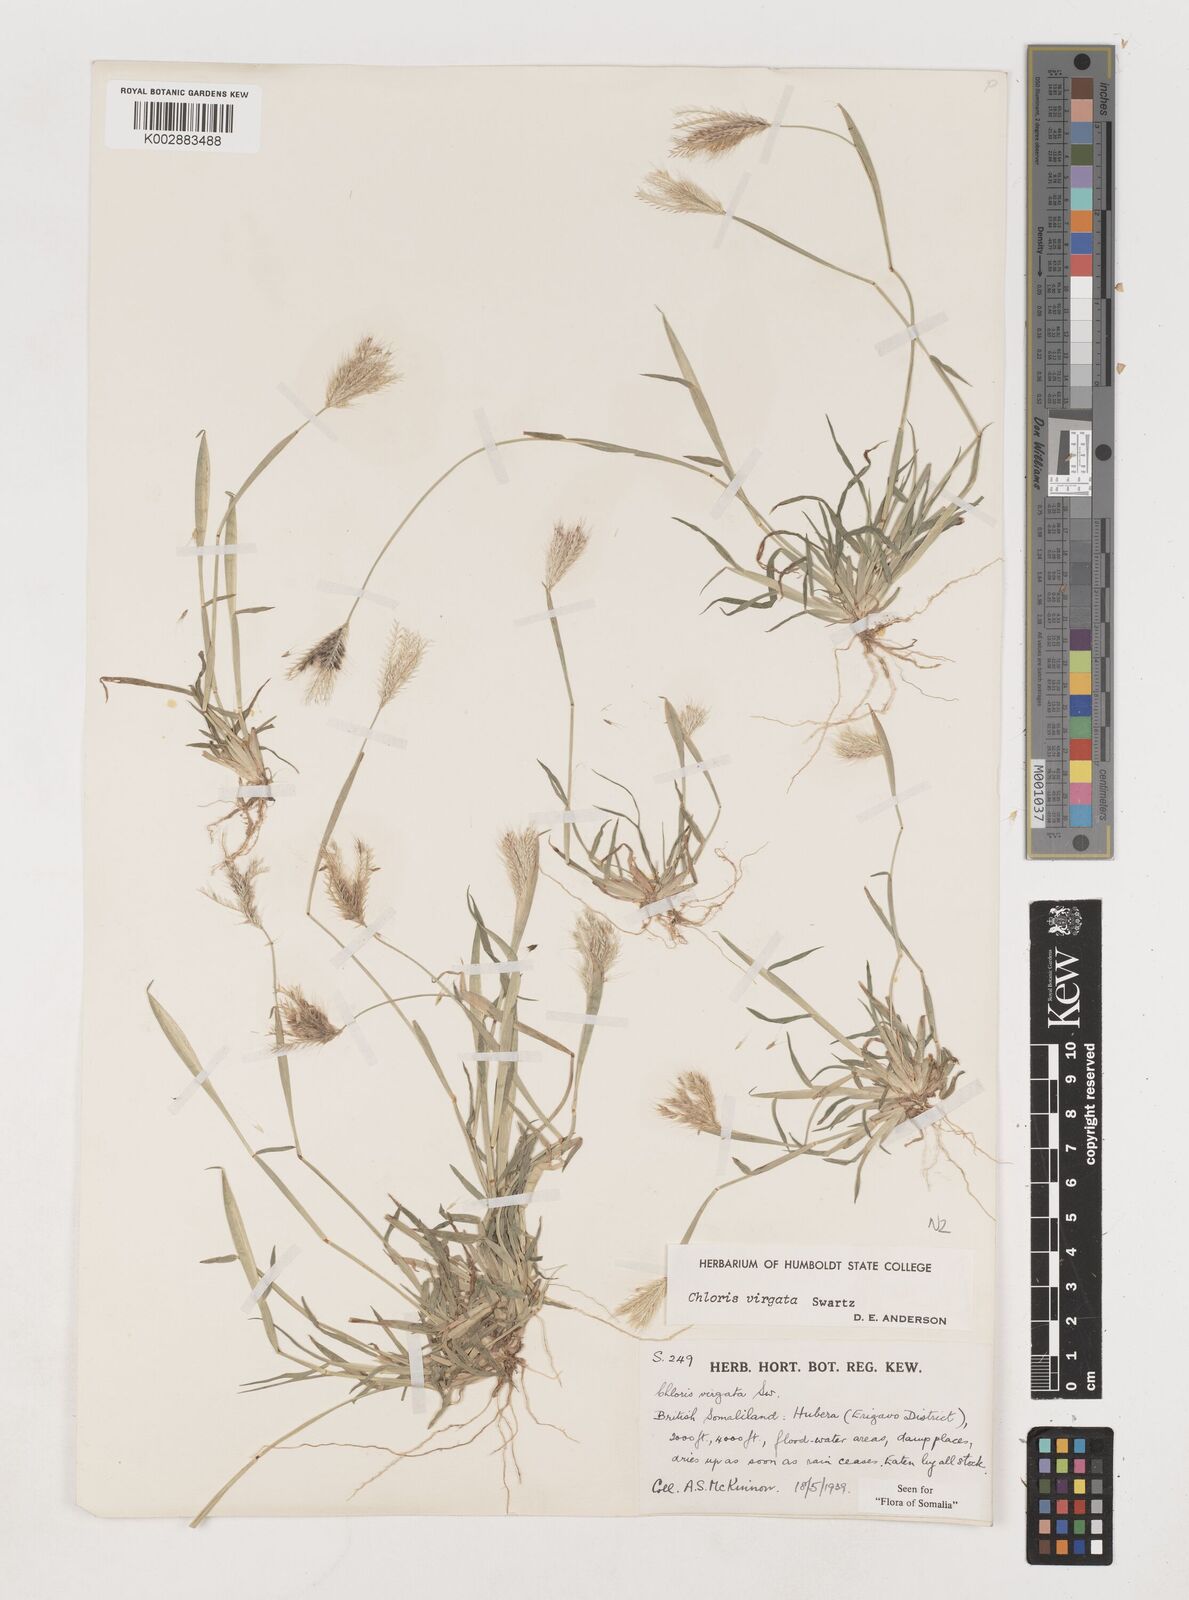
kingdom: Plantae
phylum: Tracheophyta
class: Liliopsida
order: Poales
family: Poaceae
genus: Chloris
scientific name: Chloris virgata
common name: Feathery rhodes-grass
